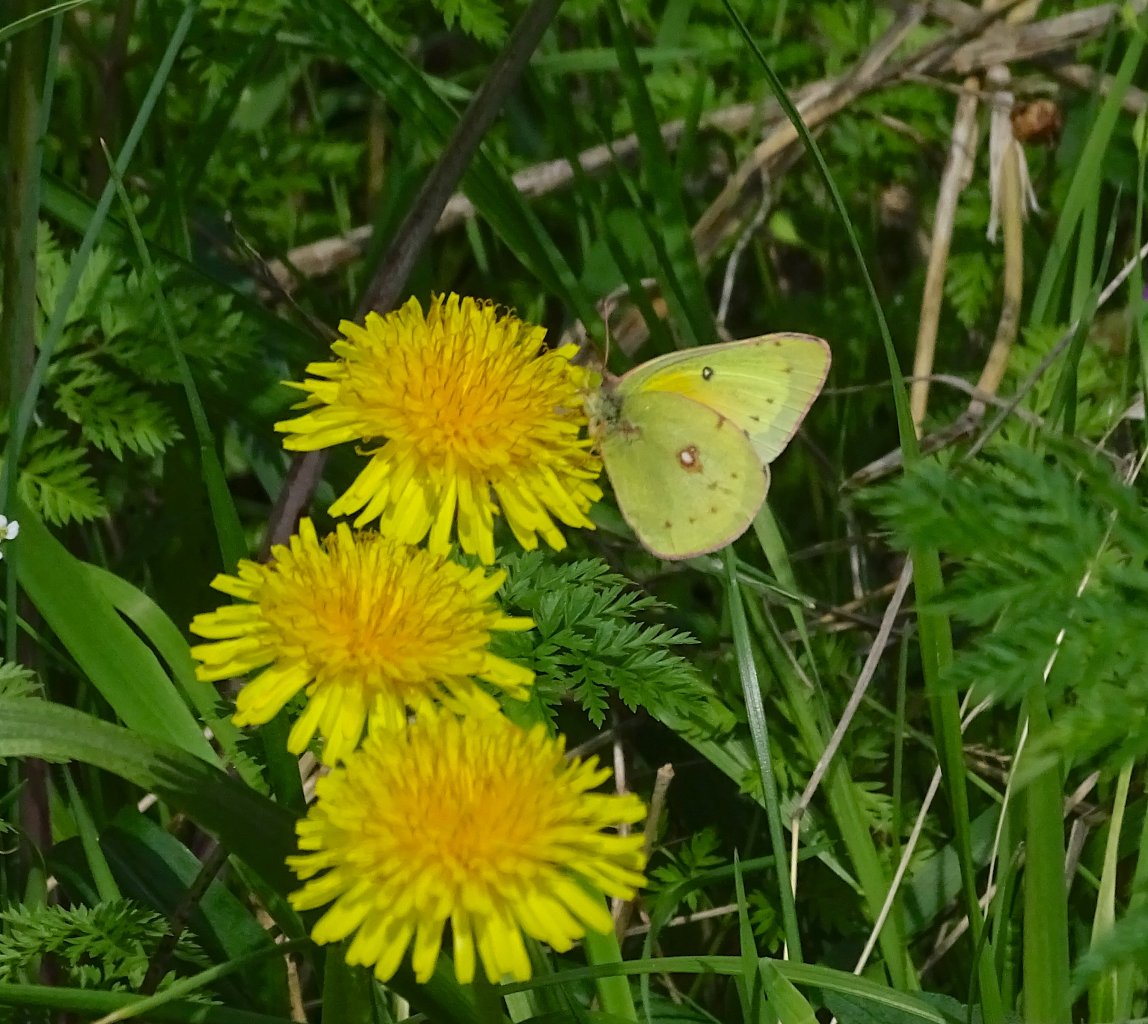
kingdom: Animalia
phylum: Arthropoda
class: Insecta
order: Lepidoptera
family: Pieridae
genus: Colias
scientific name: Colias eurytheme
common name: Orange Sulphur
